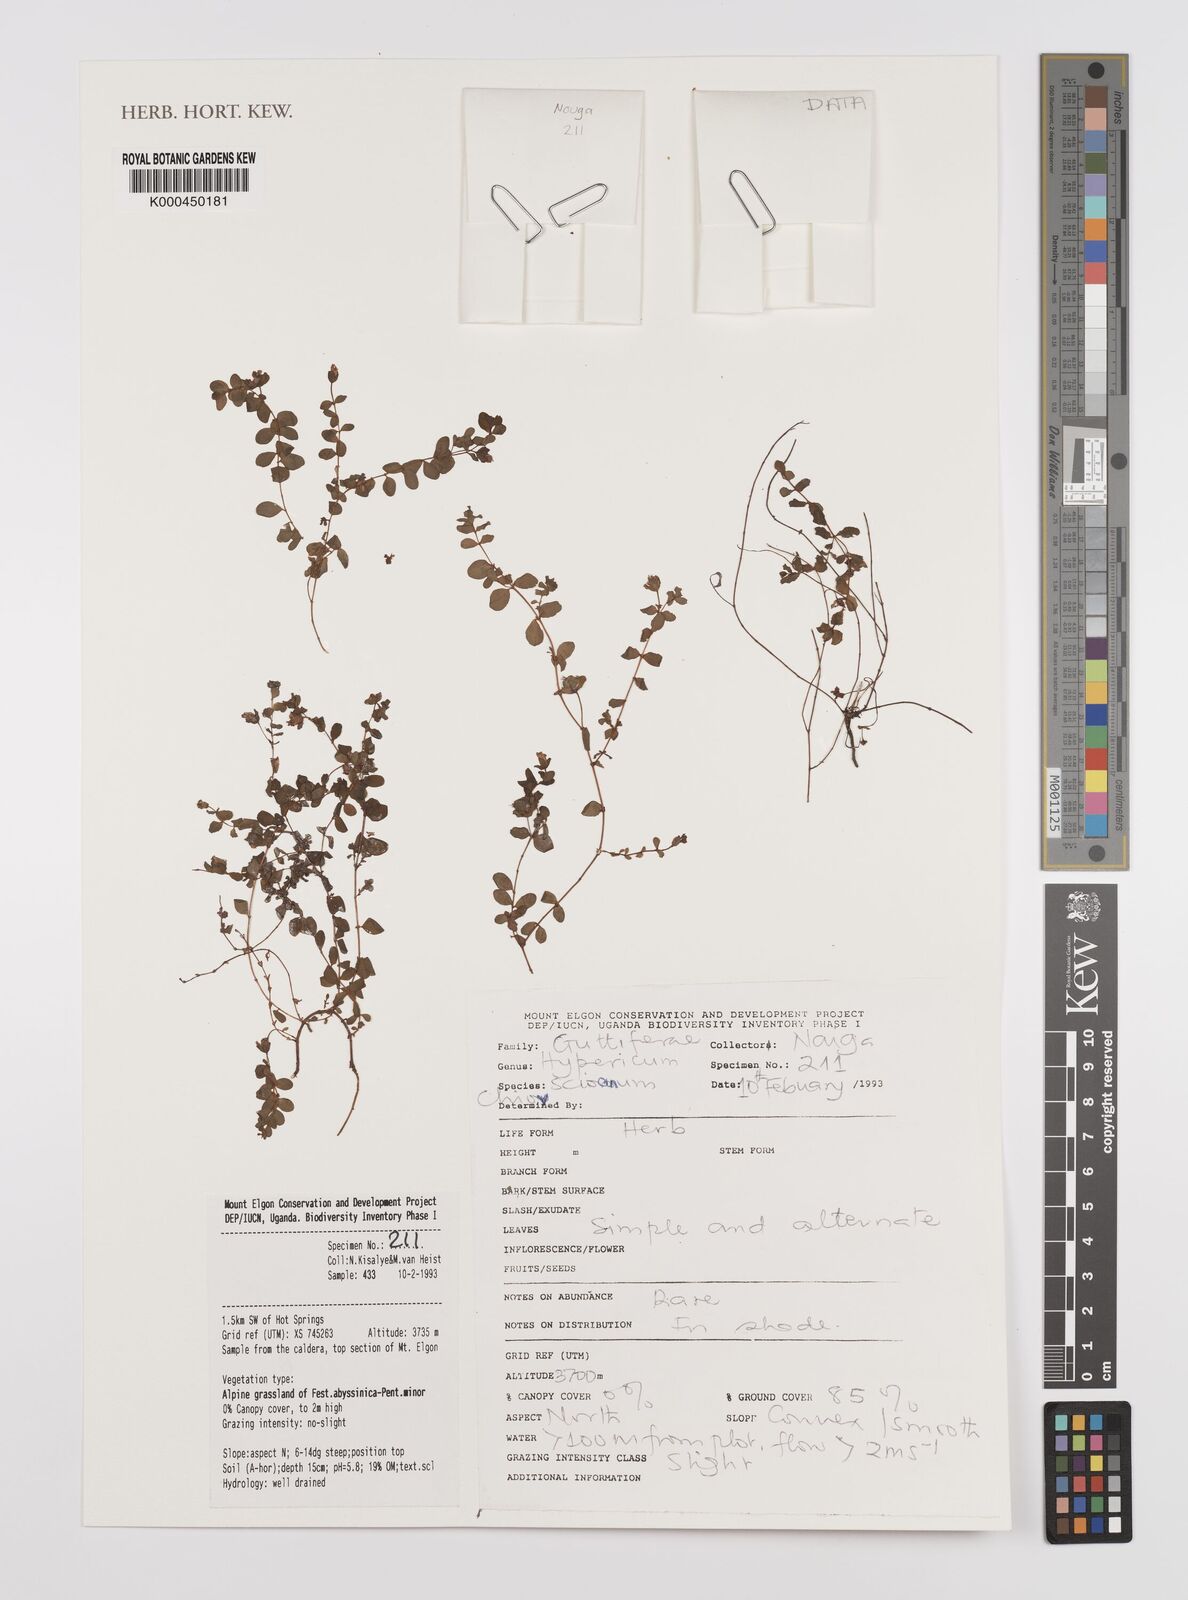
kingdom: Plantae
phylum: Tracheophyta
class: Magnoliopsida
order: Malpighiales
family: Hypericaceae
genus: Hypericum
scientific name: Hypericum peplidifolium
